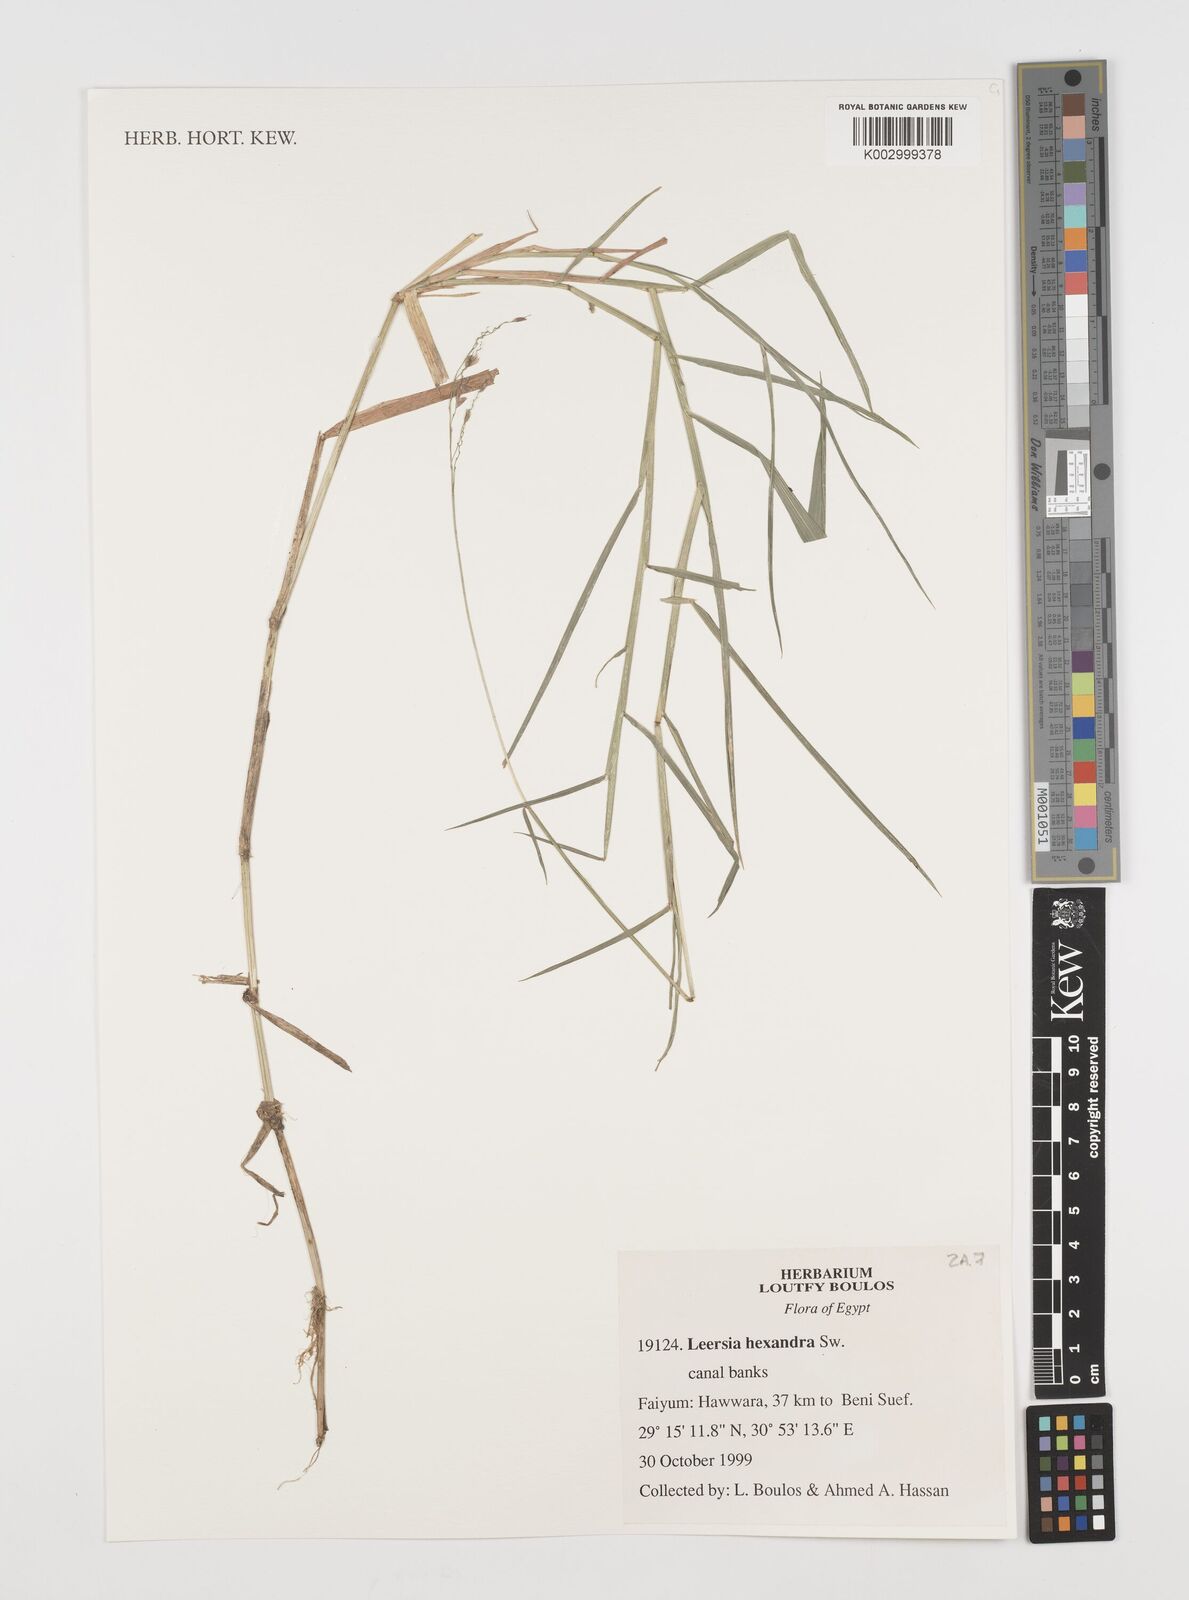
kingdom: Plantae
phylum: Tracheophyta
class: Liliopsida
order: Poales
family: Poaceae
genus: Leersia
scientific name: Leersia hexandra
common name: Southern cut grass
